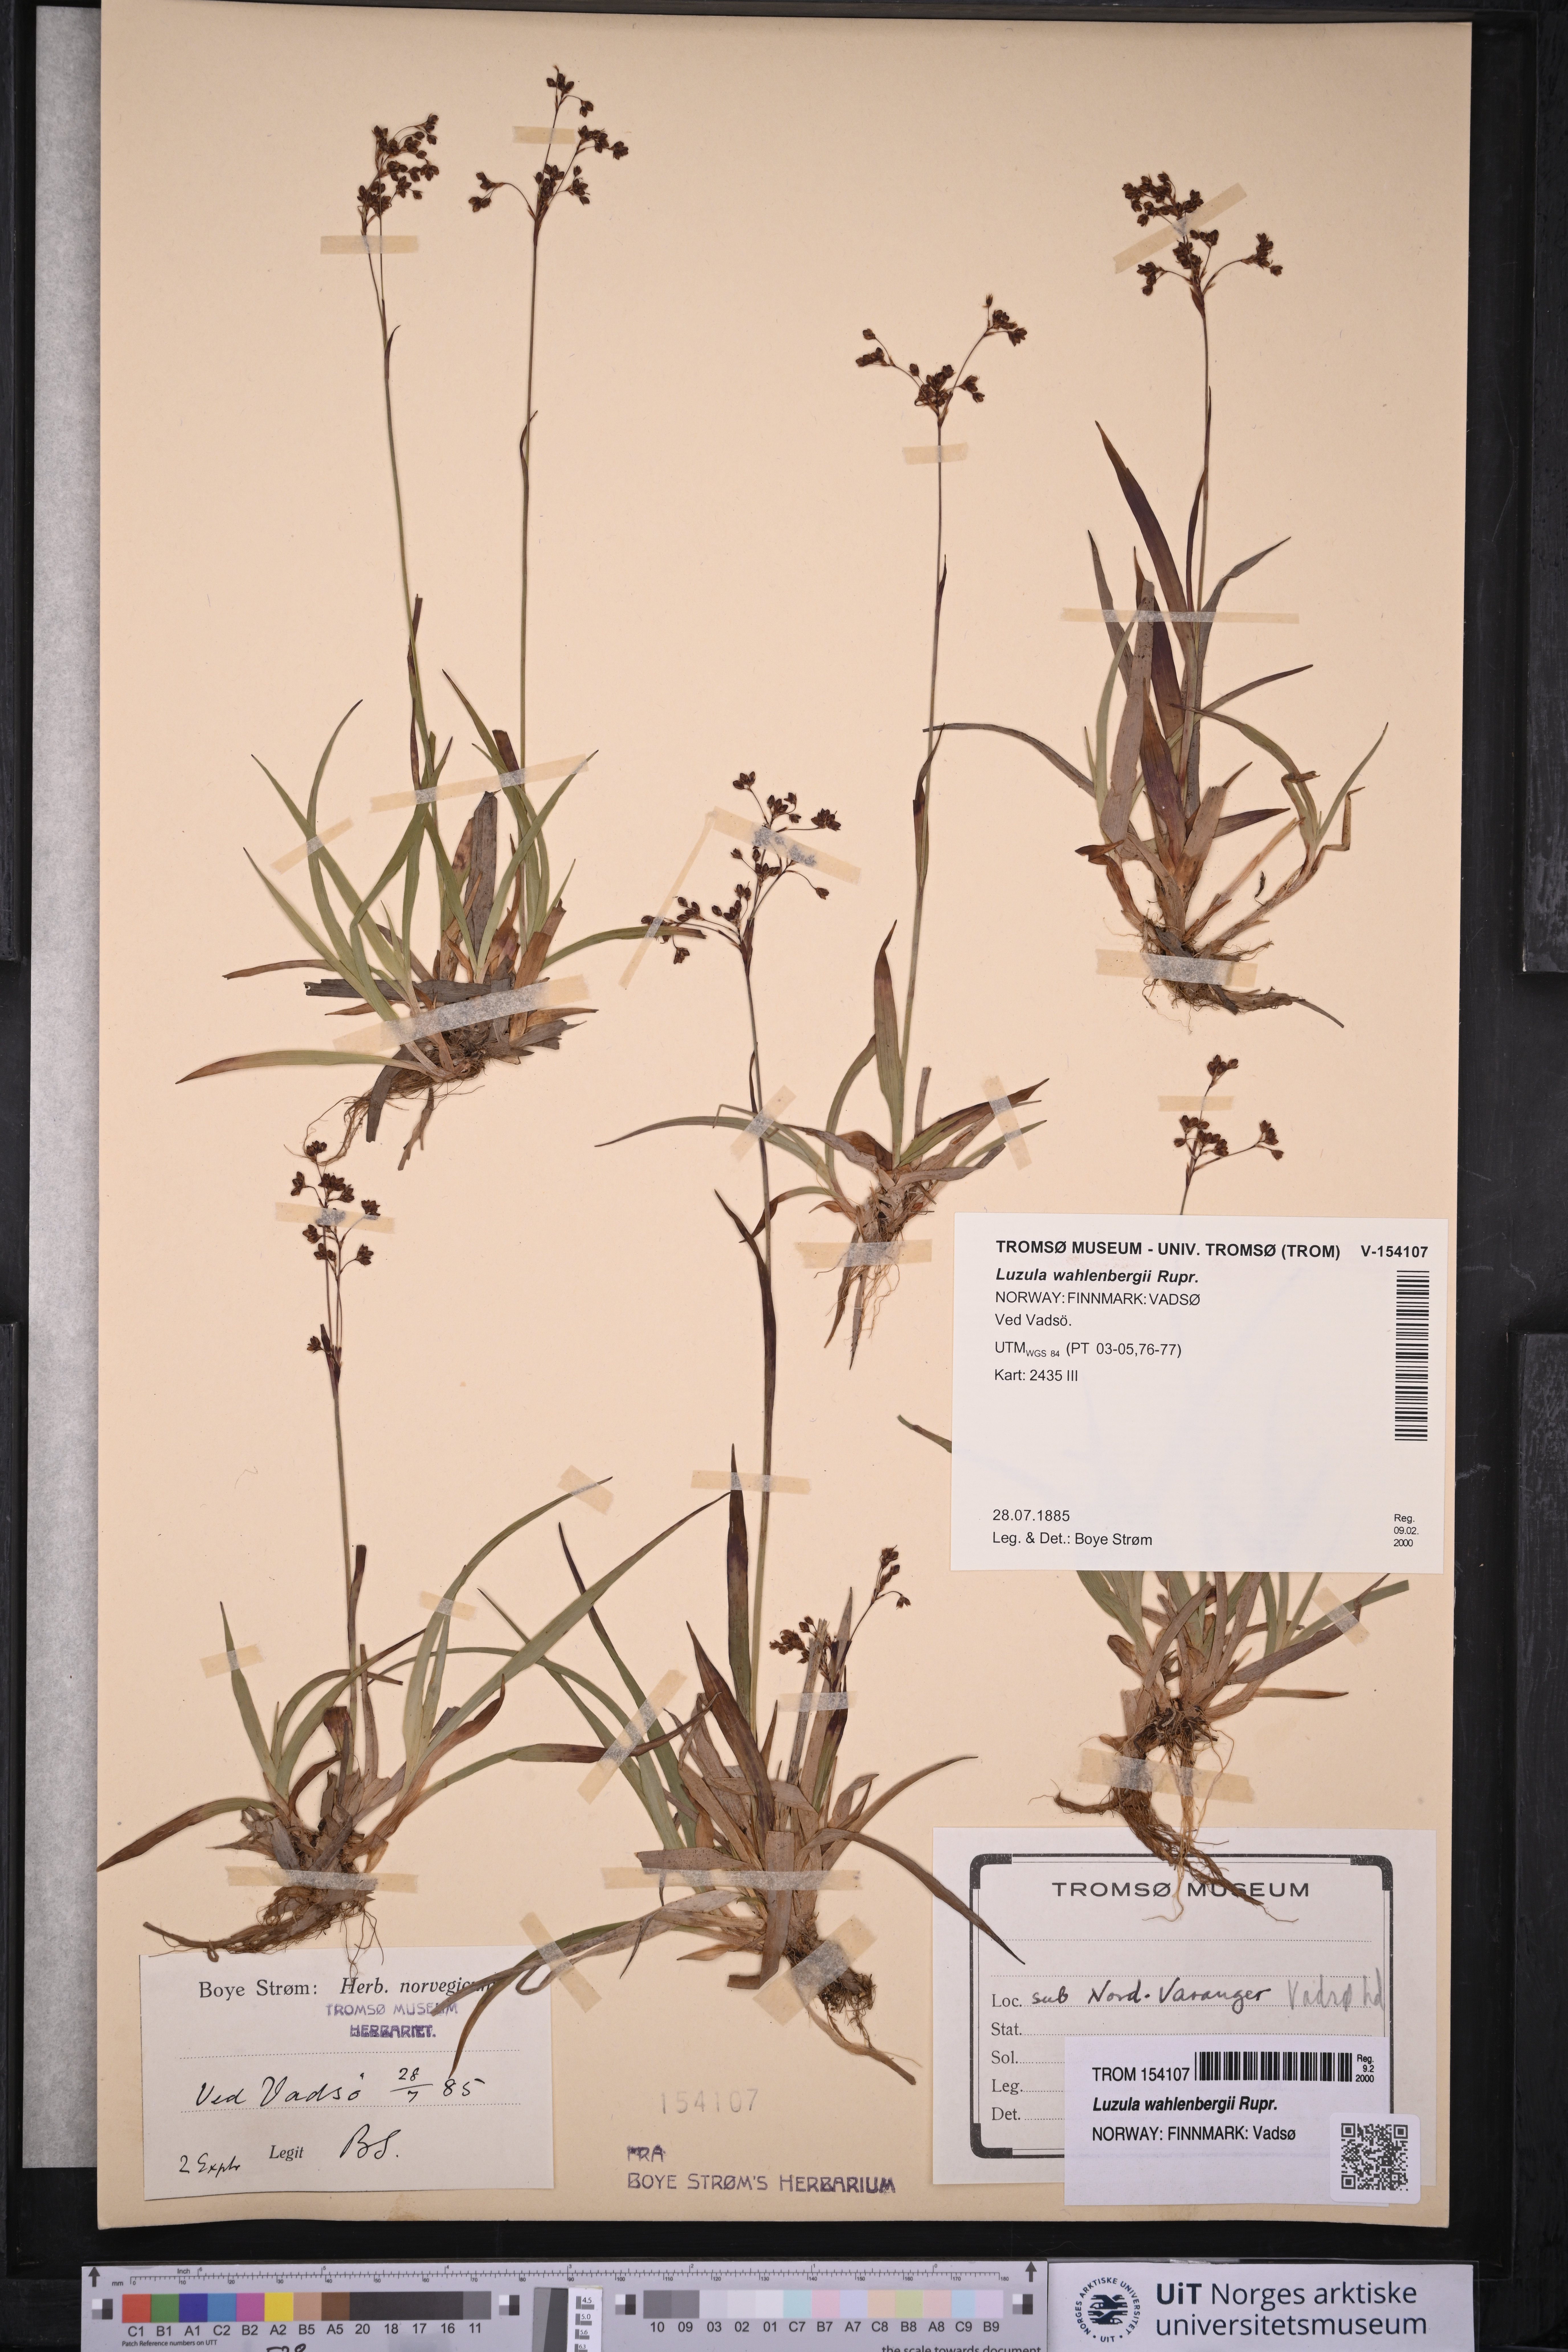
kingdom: Plantae
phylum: Tracheophyta
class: Liliopsida
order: Poales
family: Juncaceae
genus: Luzula
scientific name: Luzula wahlenbergii
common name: Wahlenberg's wood-rush
